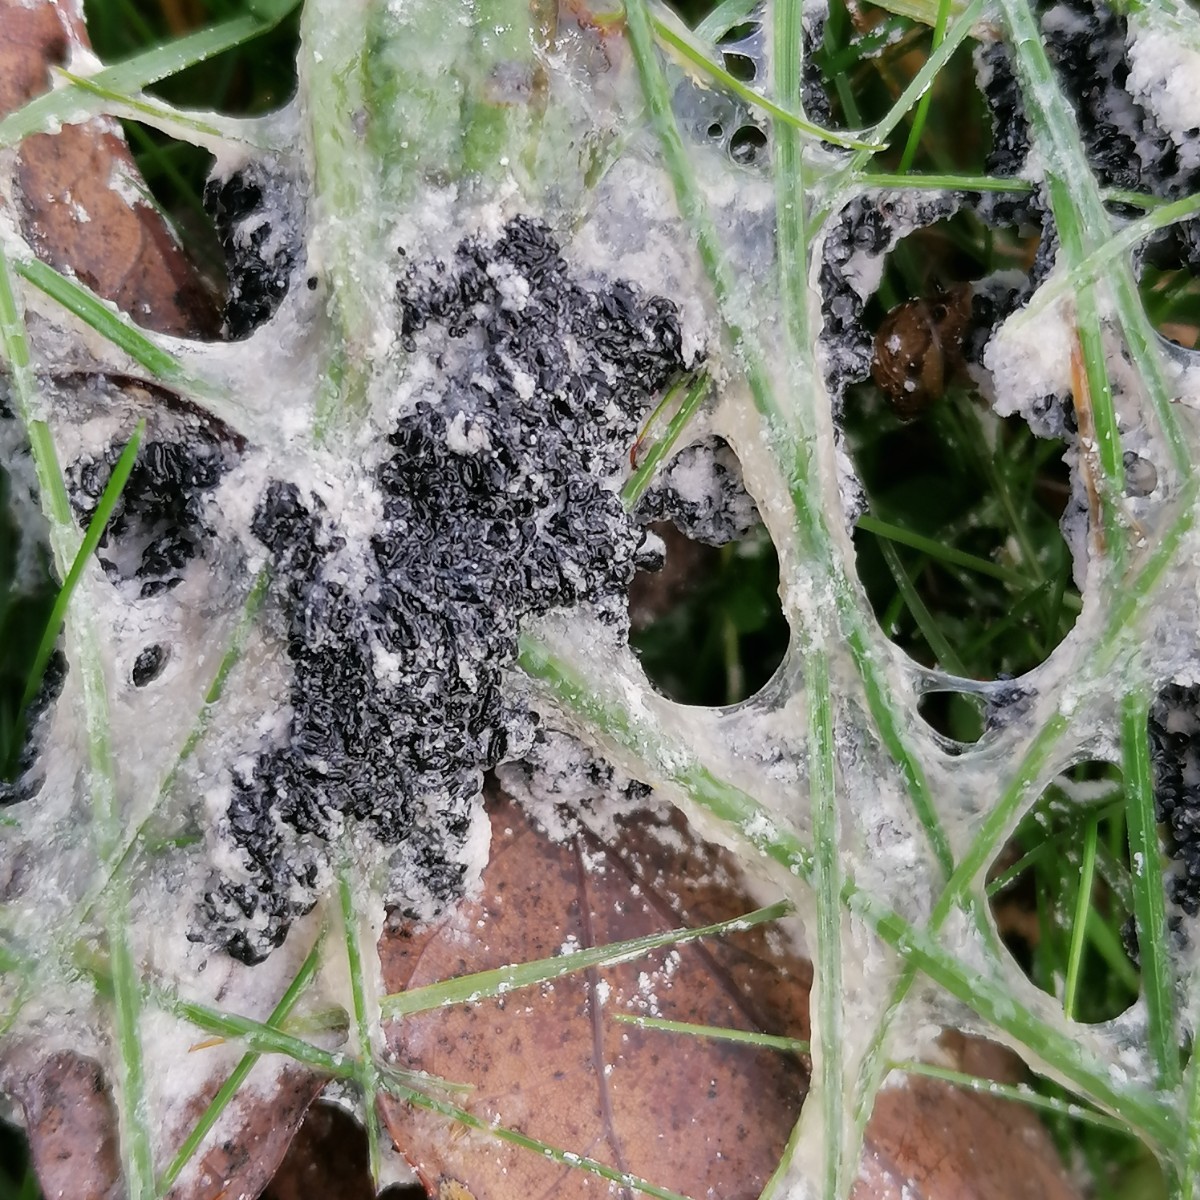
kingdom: Protozoa
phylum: Mycetozoa
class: Myxomycetes
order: Physarales
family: Physaraceae
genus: Didymium
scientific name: Didymium
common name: urteskum
